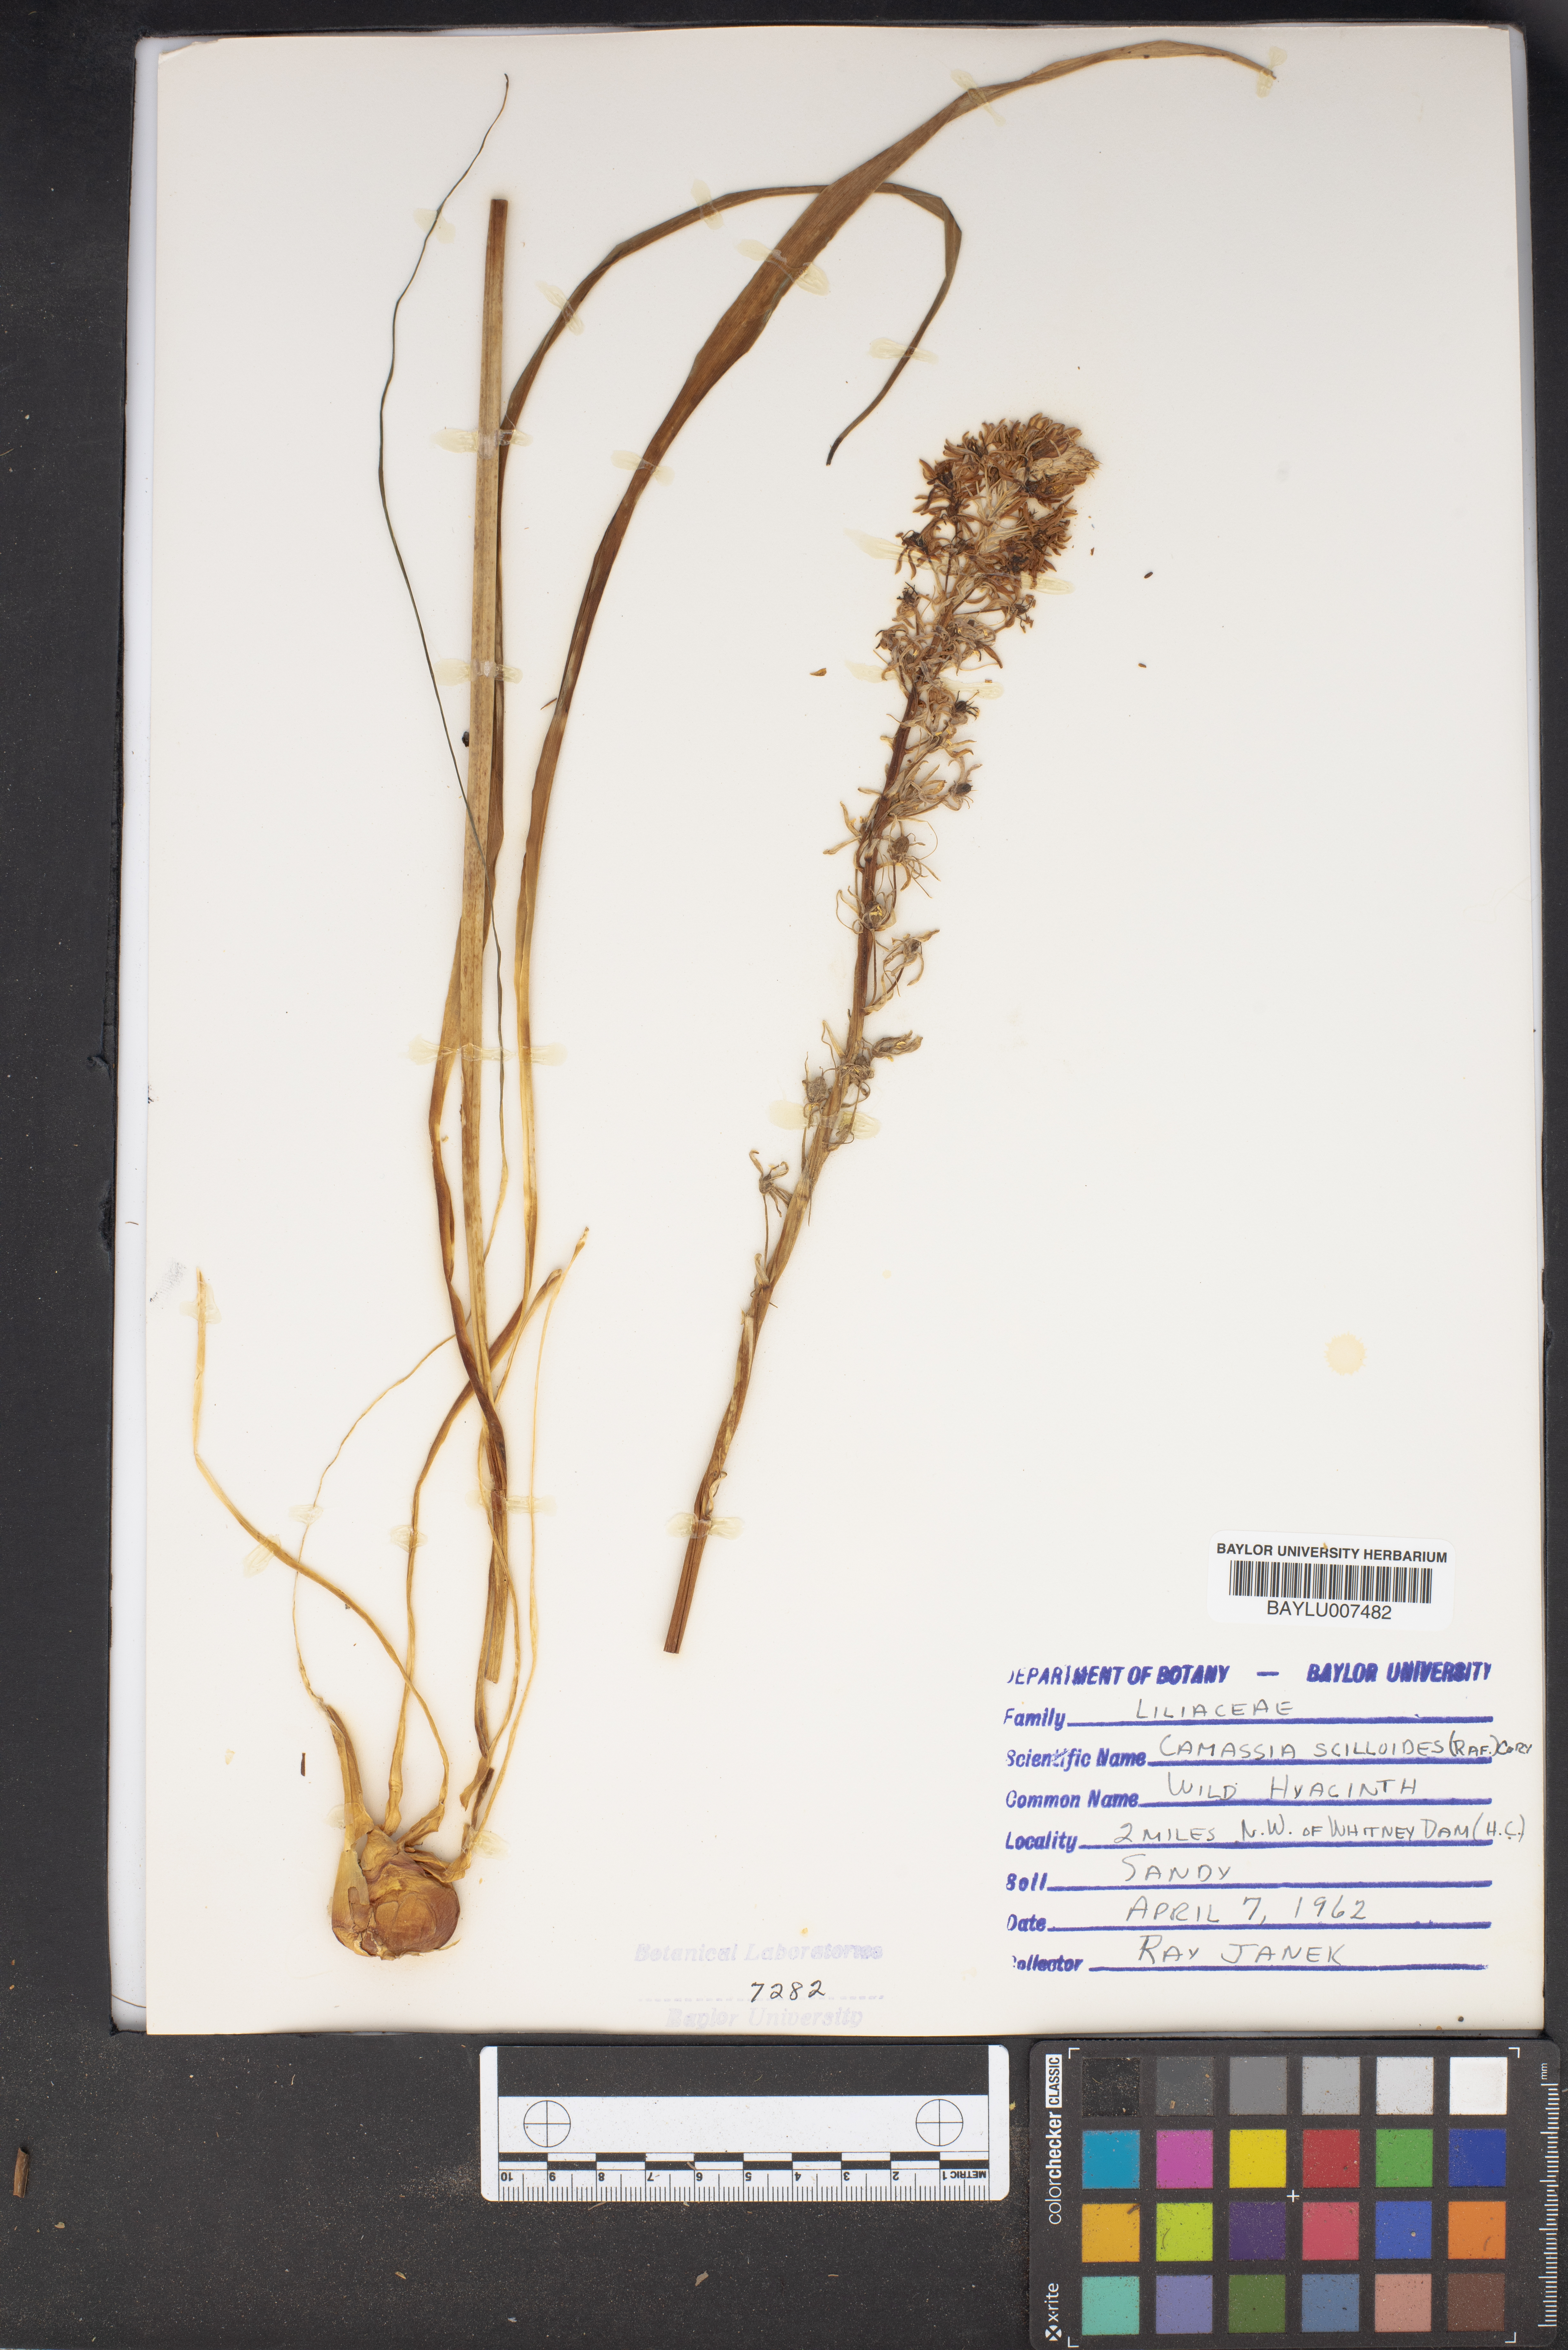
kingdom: Plantae
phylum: Tracheophyta
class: Liliopsida
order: Asparagales
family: Asparagaceae
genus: Camassia
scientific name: Camassia scilloides
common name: Wild hyacinth
